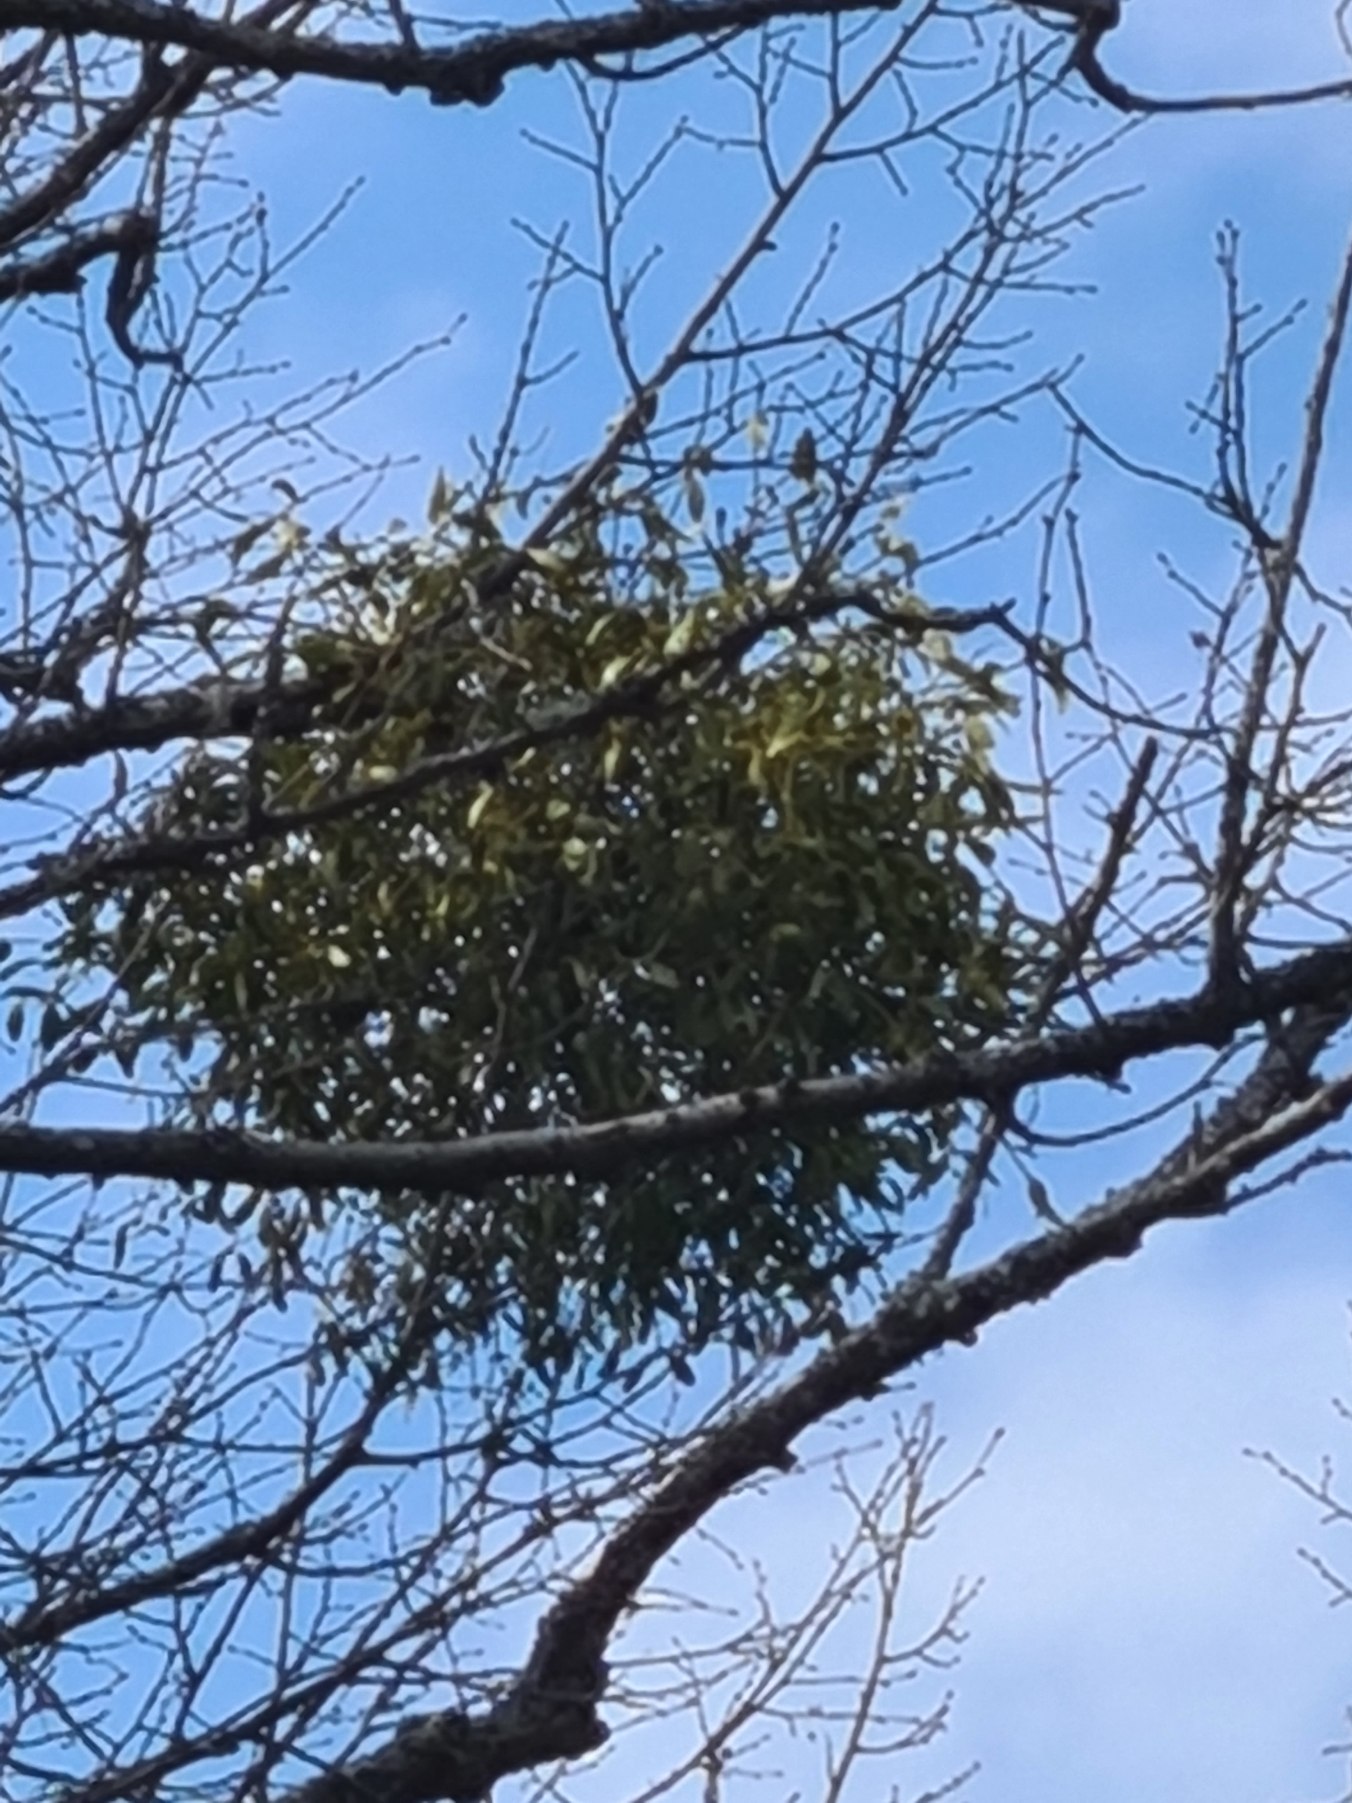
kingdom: Plantae
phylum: Tracheophyta
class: Magnoliopsida
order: Santalales
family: Viscaceae
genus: Viscum
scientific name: Viscum album
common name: Mistelten
